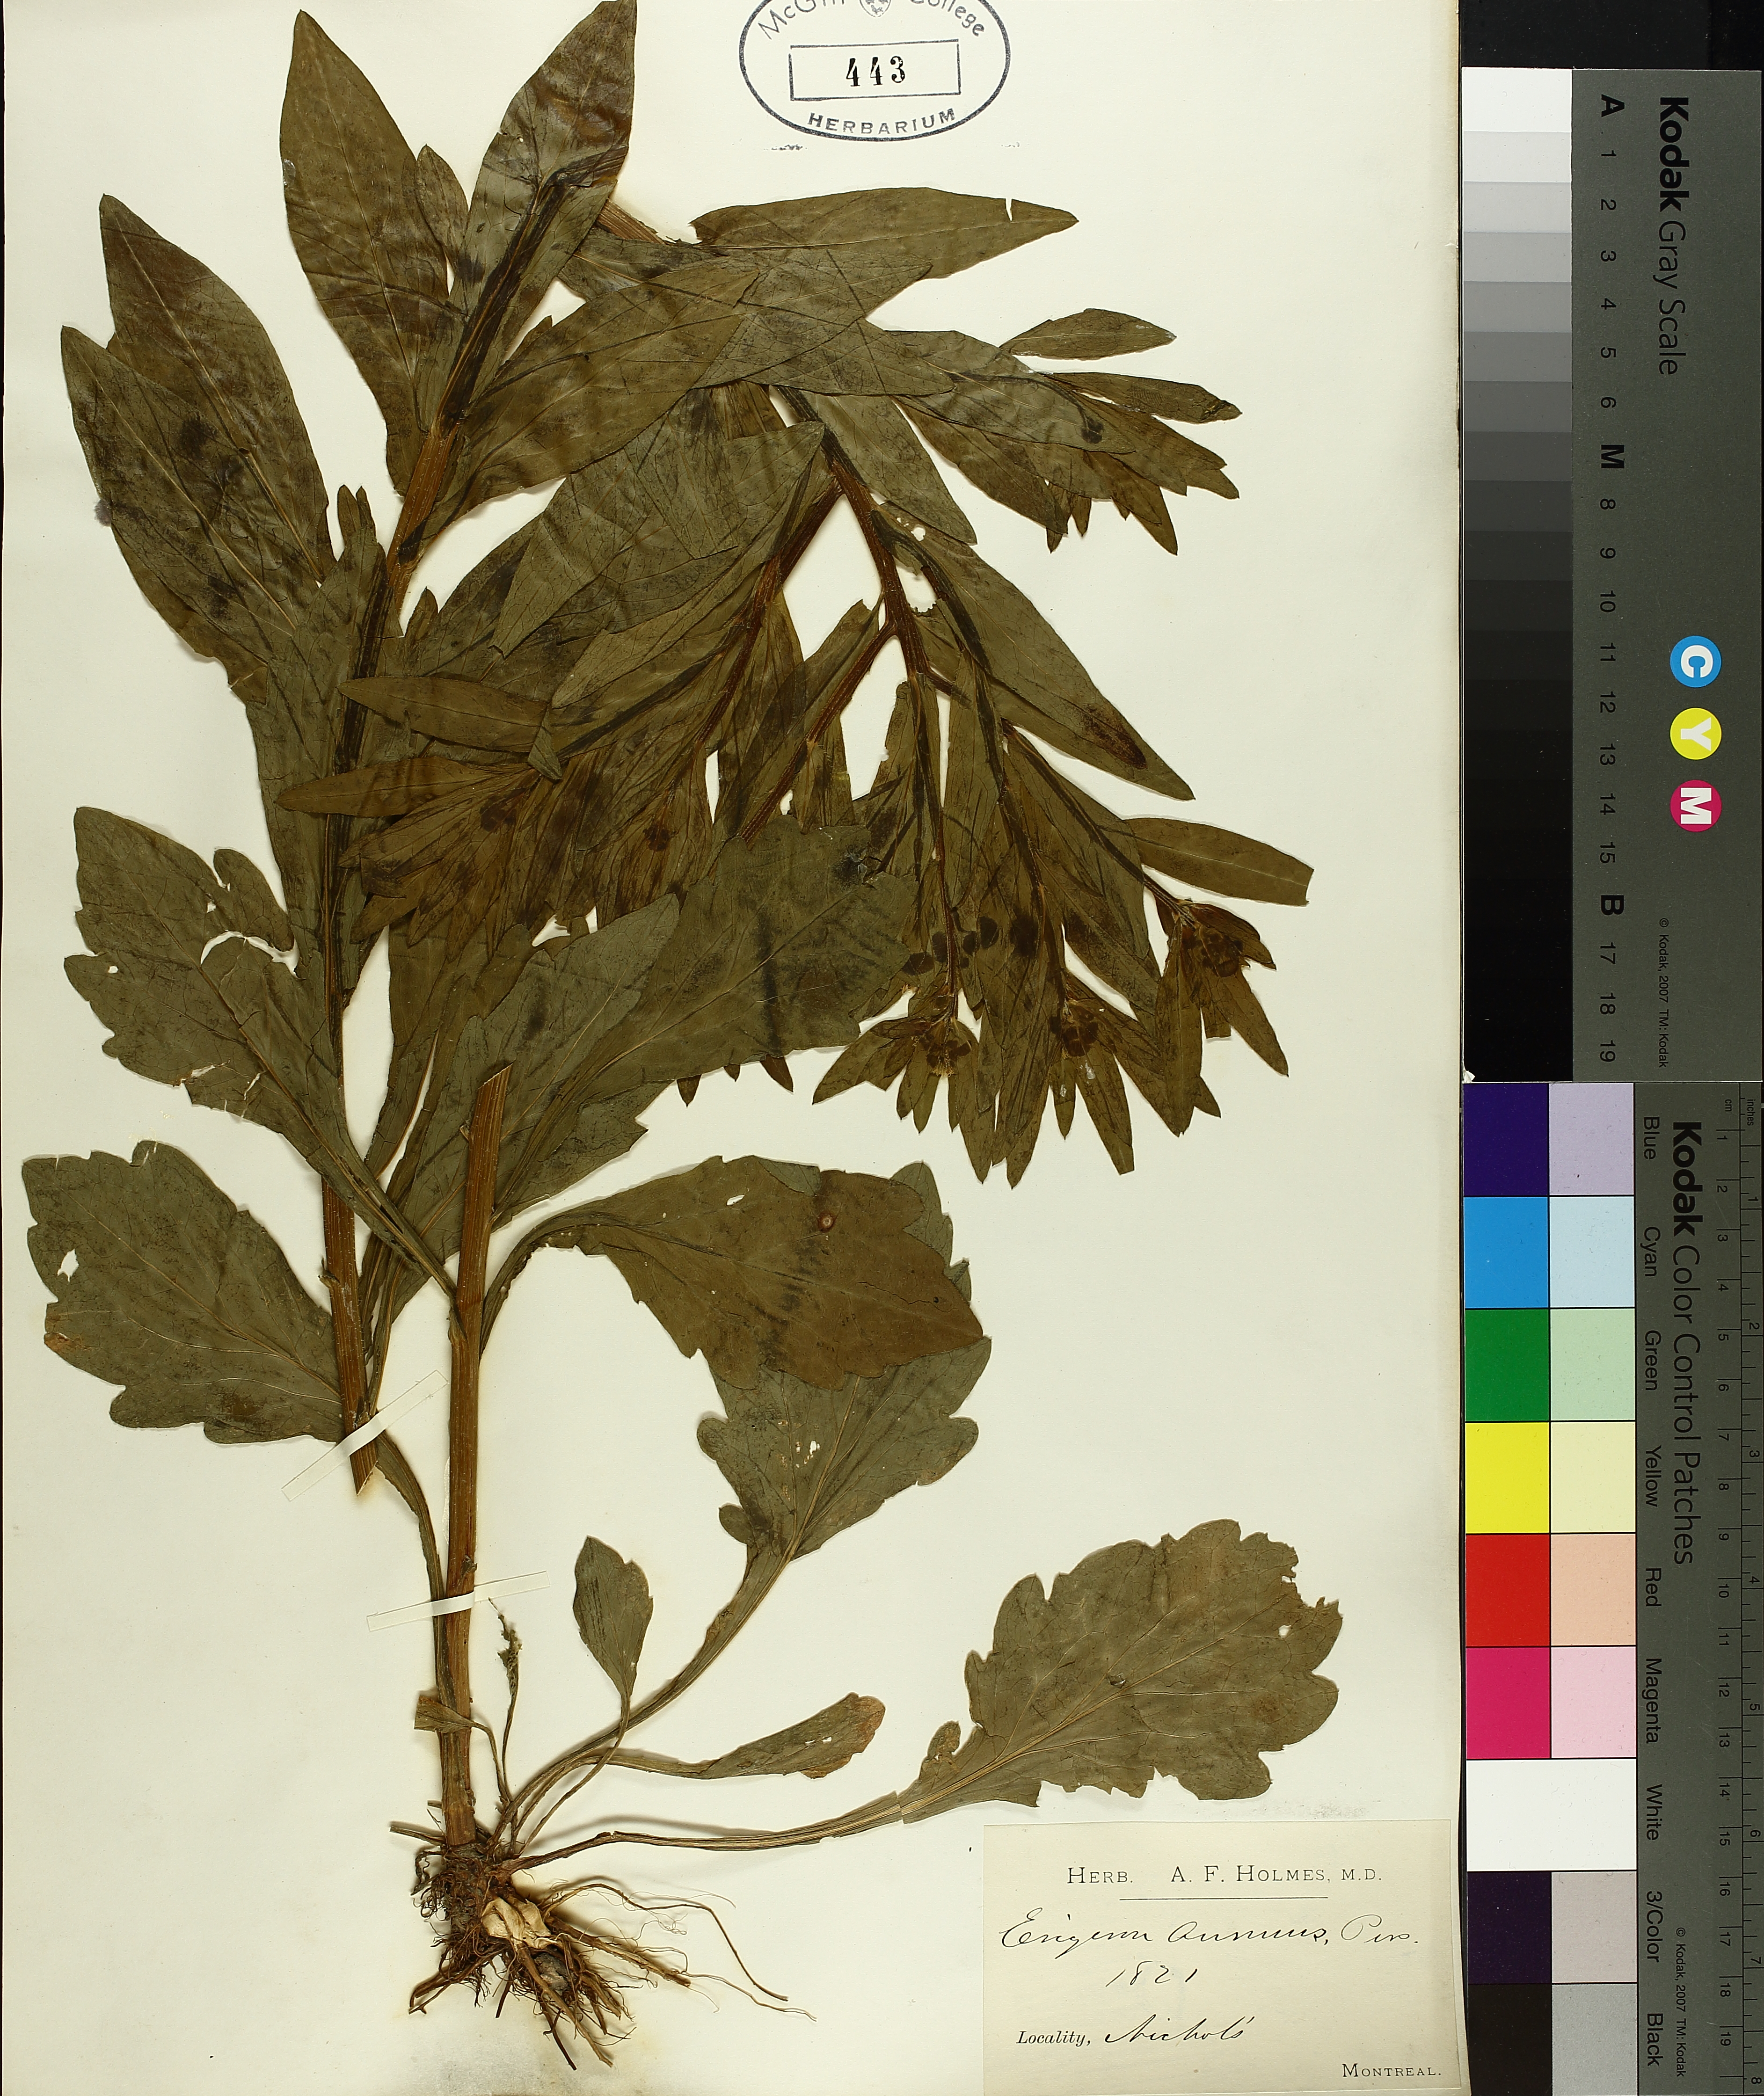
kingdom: Plantae
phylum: Tracheophyta
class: Magnoliopsida
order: Asterales
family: Asteraceae
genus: Erigeron
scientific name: Erigeron annuus
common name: Tall fleabane
